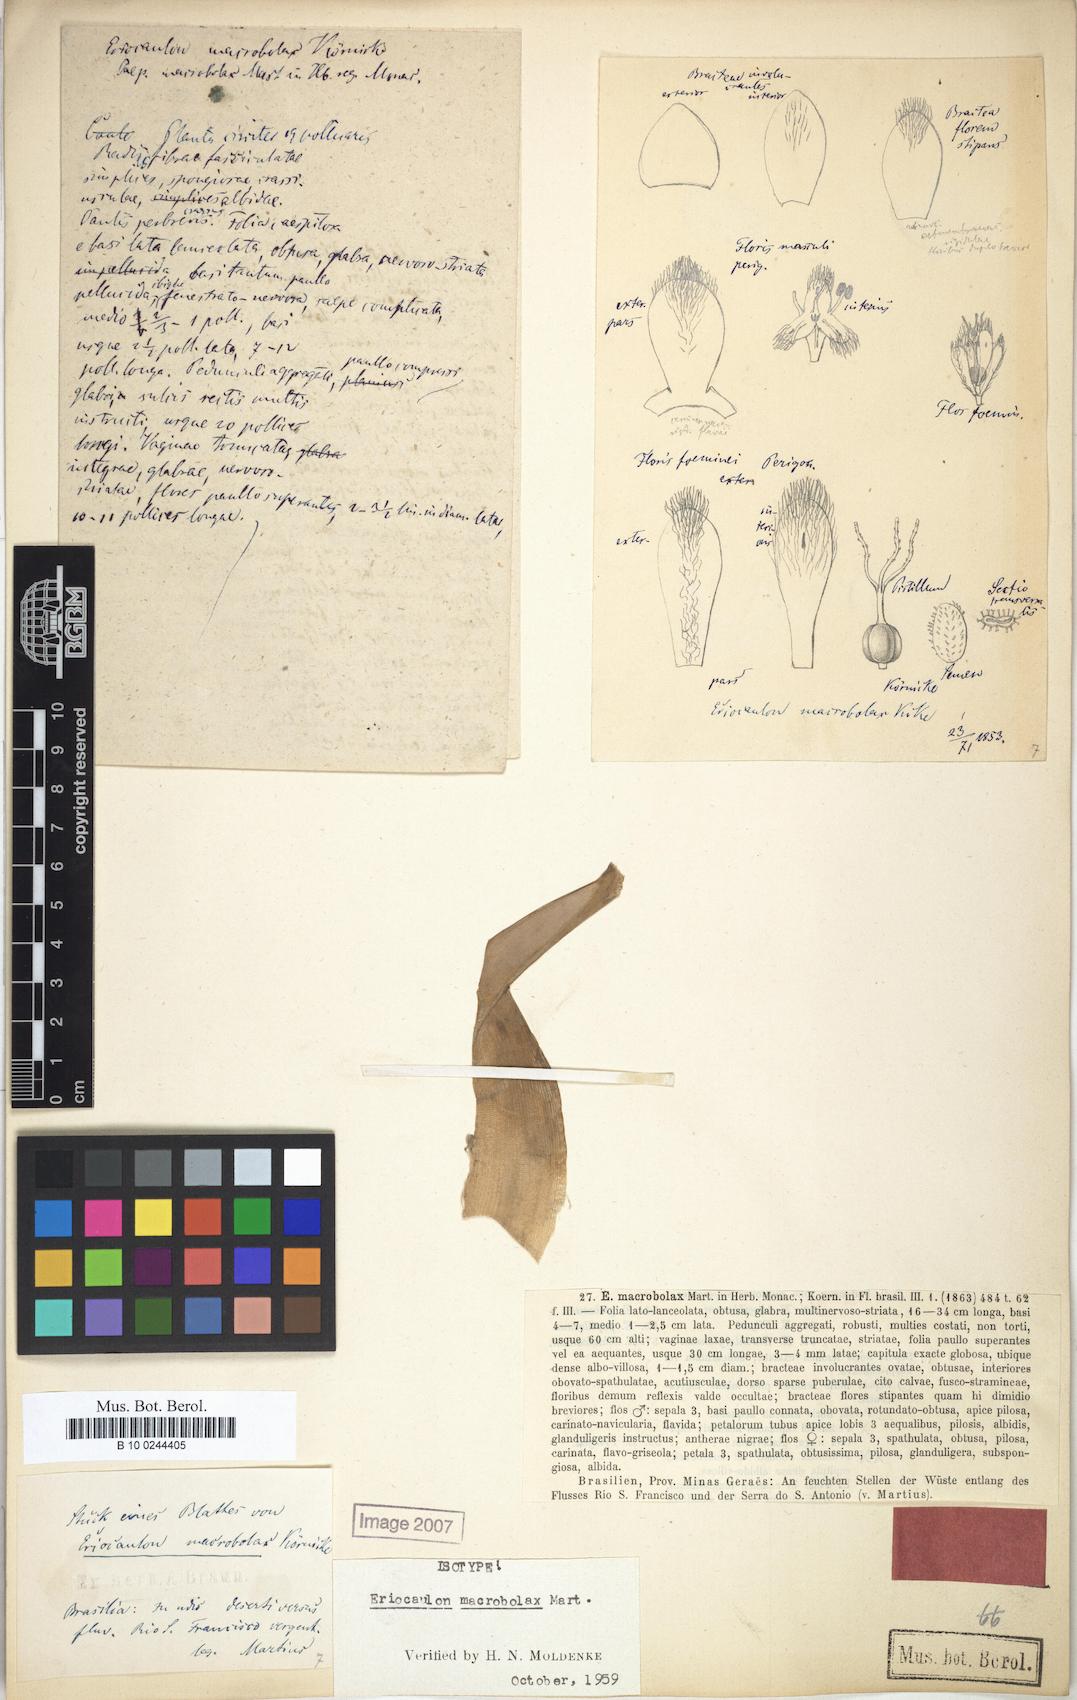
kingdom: Plantae
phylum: Tracheophyta
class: Liliopsida
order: Poales
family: Eriocaulaceae
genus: Eriocaulon
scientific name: Eriocaulon macrobolax
